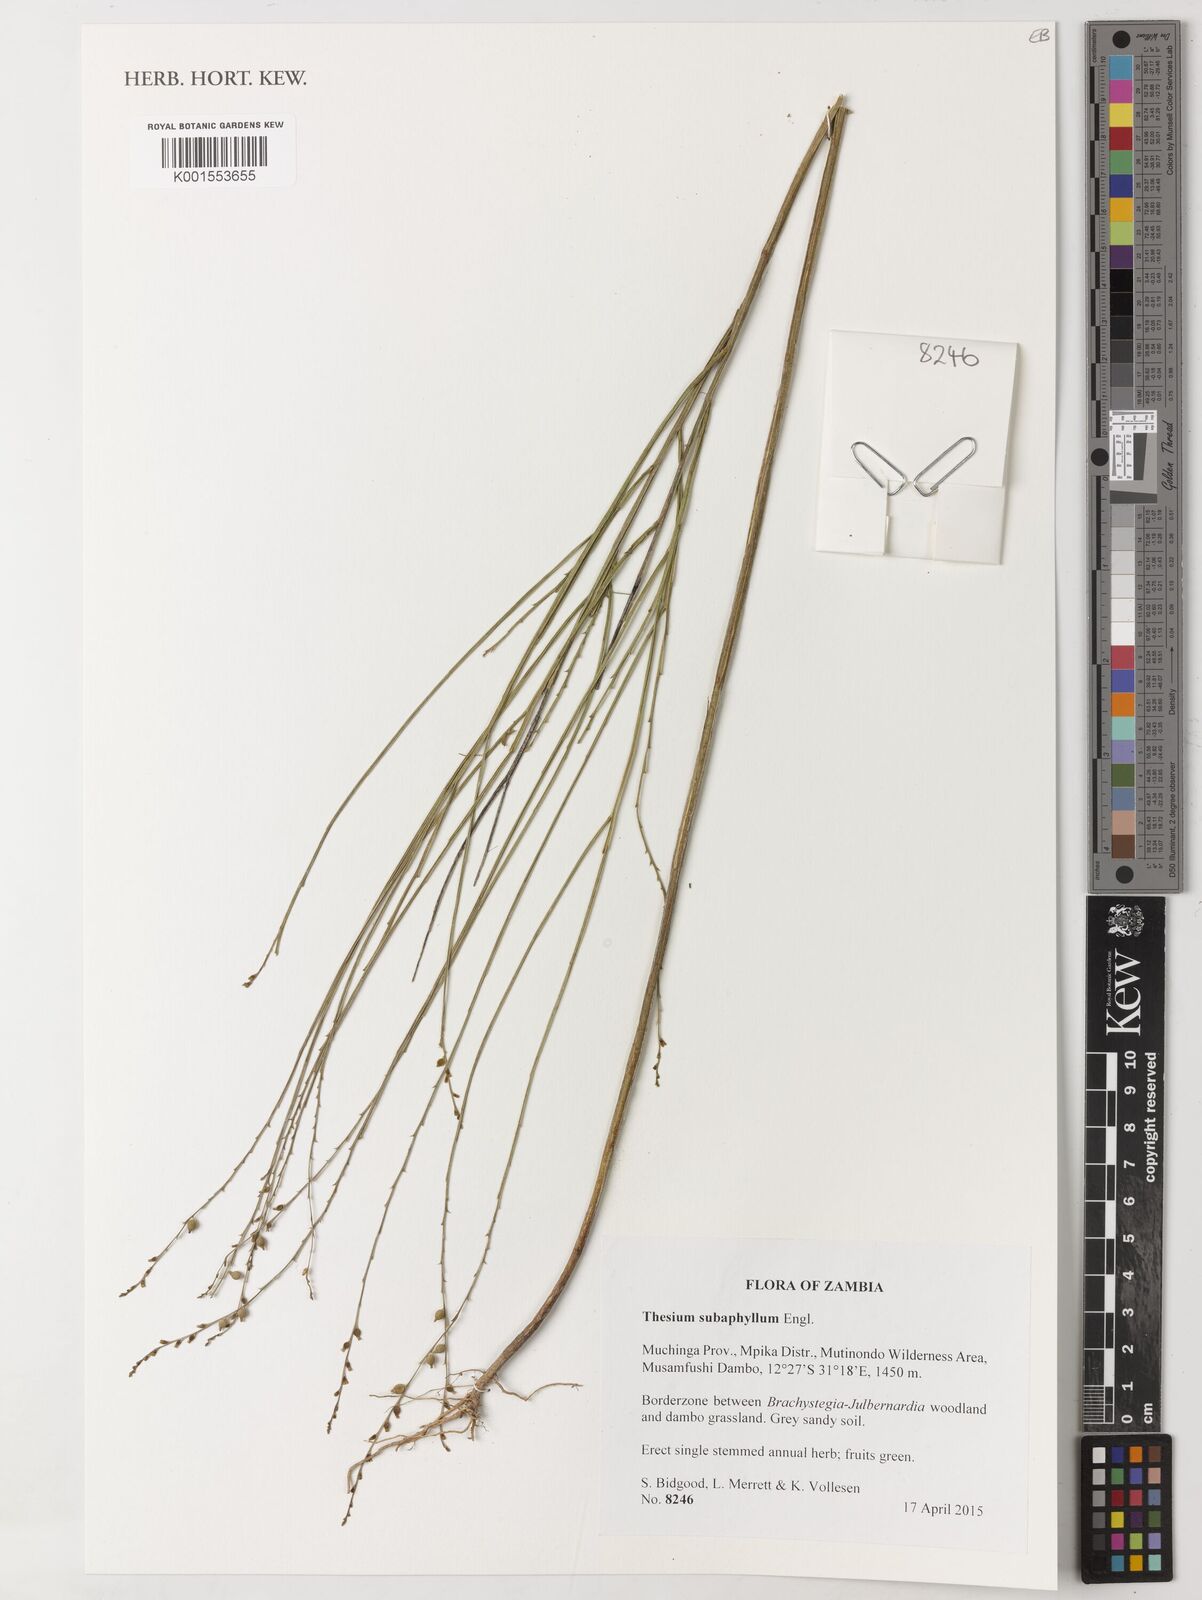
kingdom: Plantae
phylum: Tracheophyta
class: Magnoliopsida
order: Santalales
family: Thesiaceae
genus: Thesium
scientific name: Thesium subaphyllum
